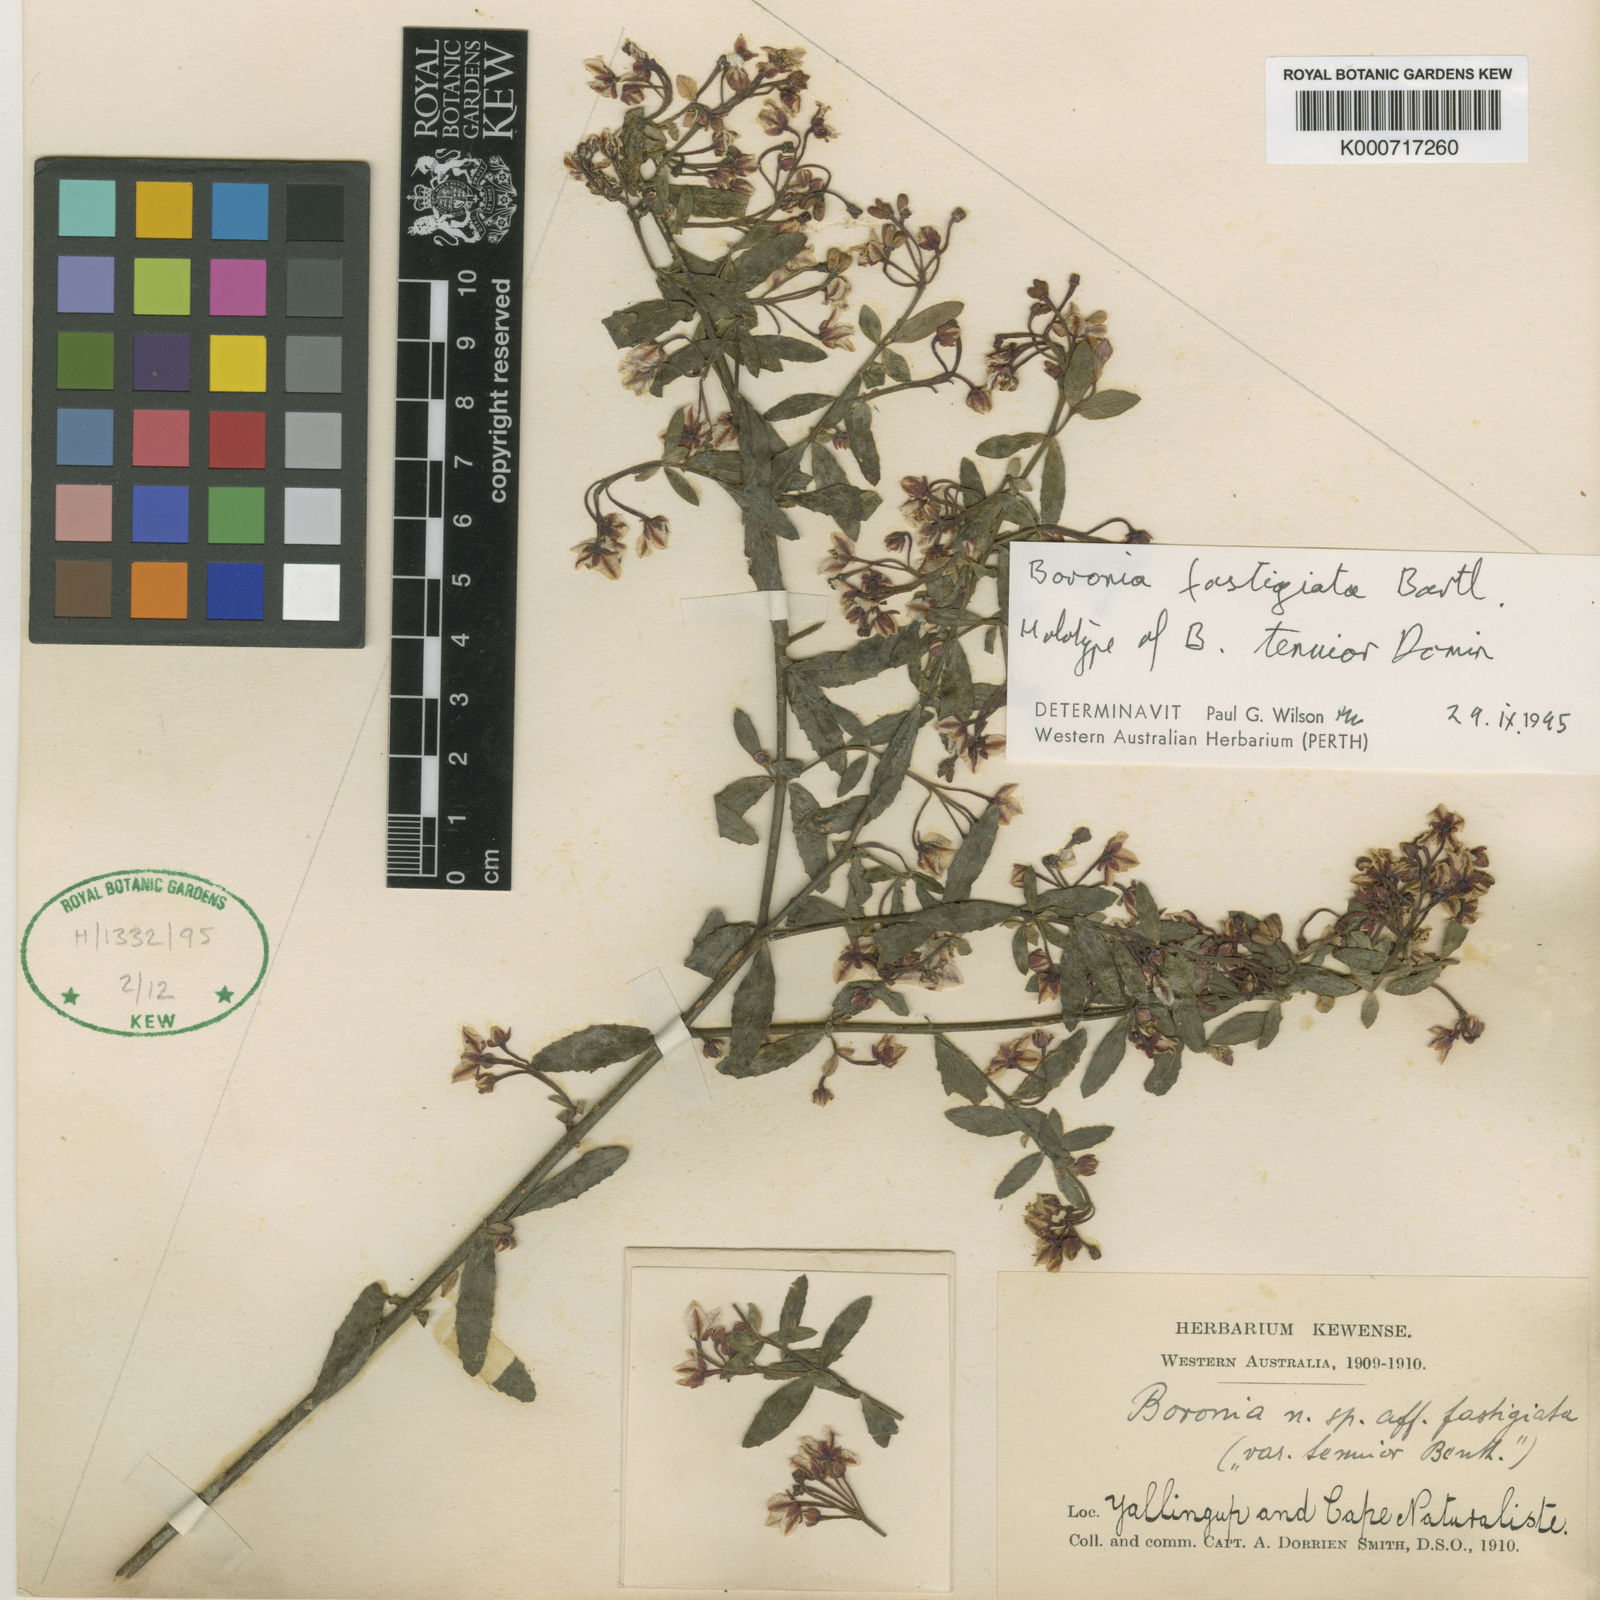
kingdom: Plantae
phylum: Tracheophyta
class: Magnoliopsida
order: Sapindales
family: Rutaceae
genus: Boronia
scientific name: Boronia fastigiata
